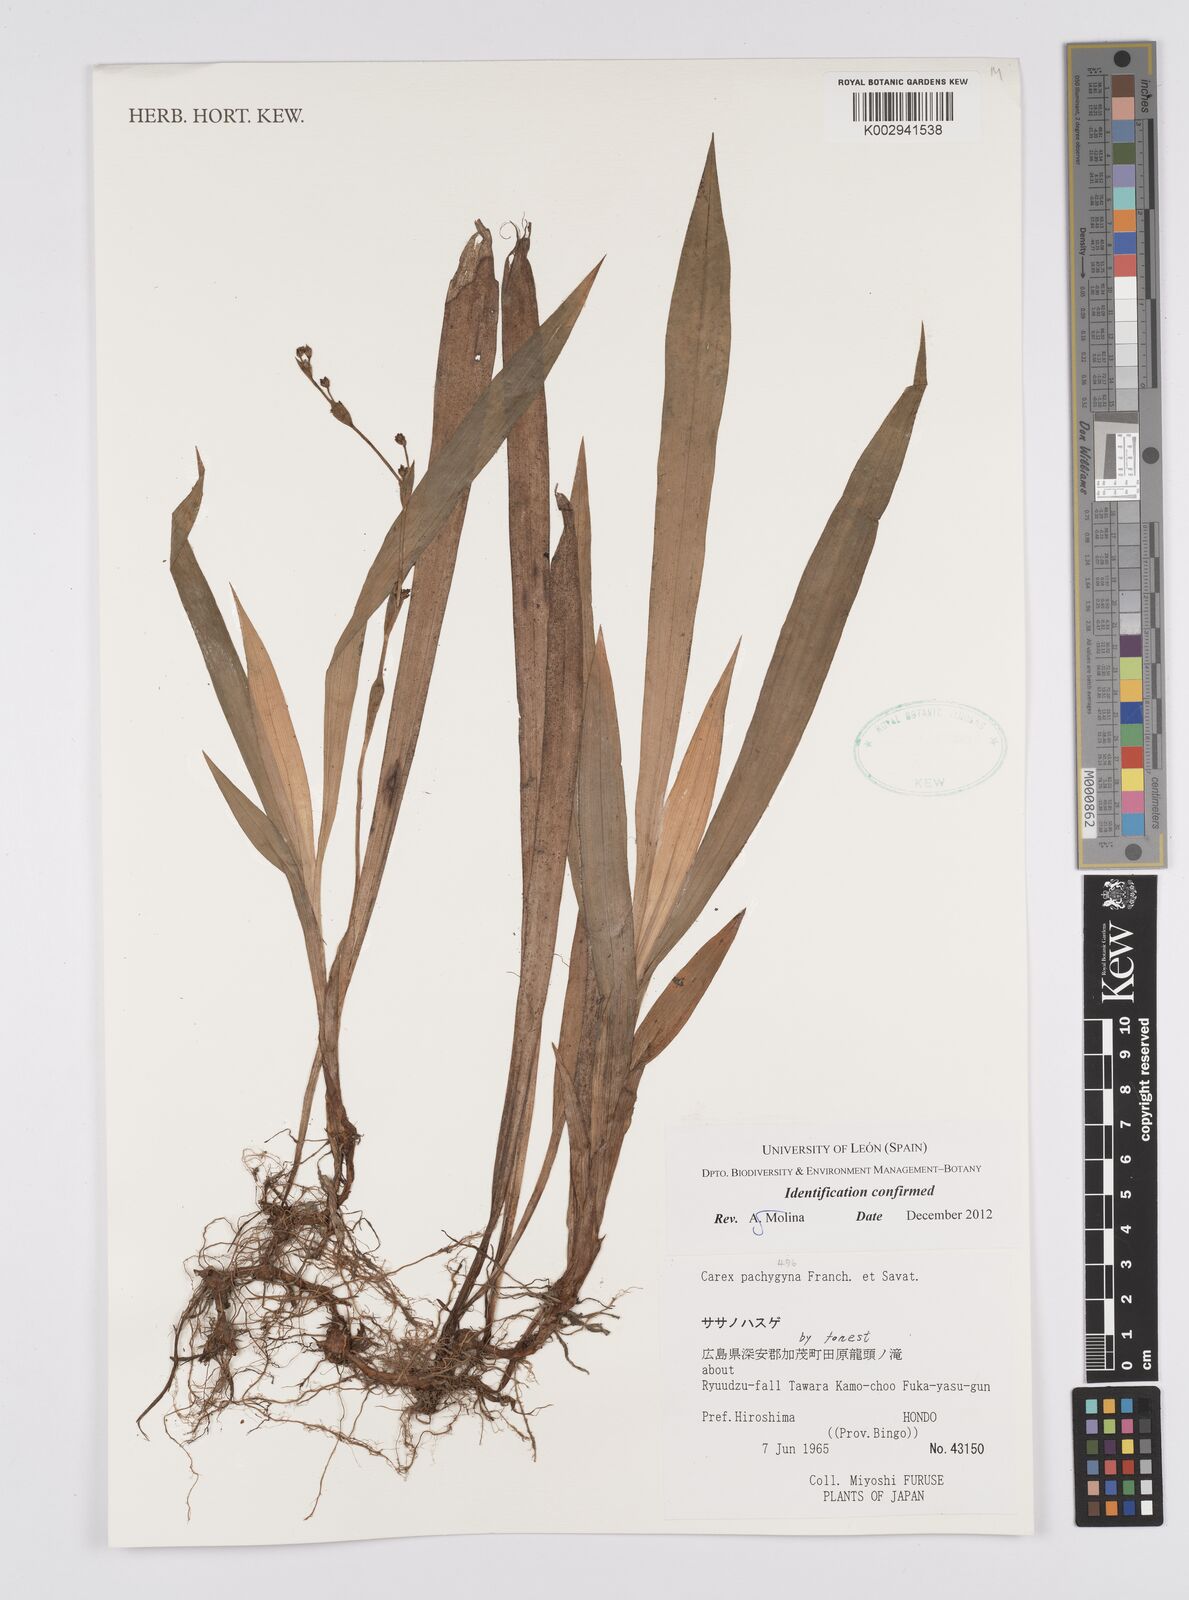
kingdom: Plantae
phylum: Tracheophyta
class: Liliopsida
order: Poales
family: Cyperaceae
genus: Carex
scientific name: Carex pachygyna
